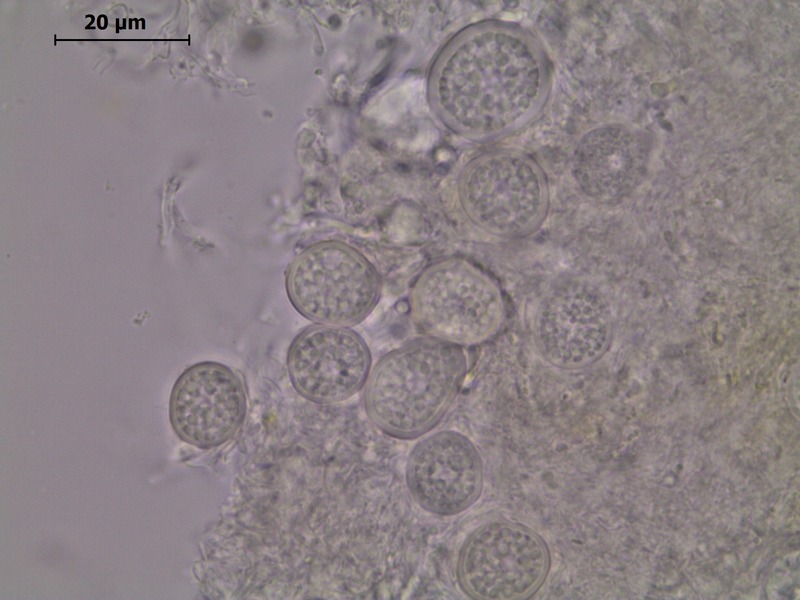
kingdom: Fungi
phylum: Basidiomycota
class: Exobasidiomycetes
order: Entylomatales
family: Entylomataceae
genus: Entyloma
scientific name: Entyloma ficariae
